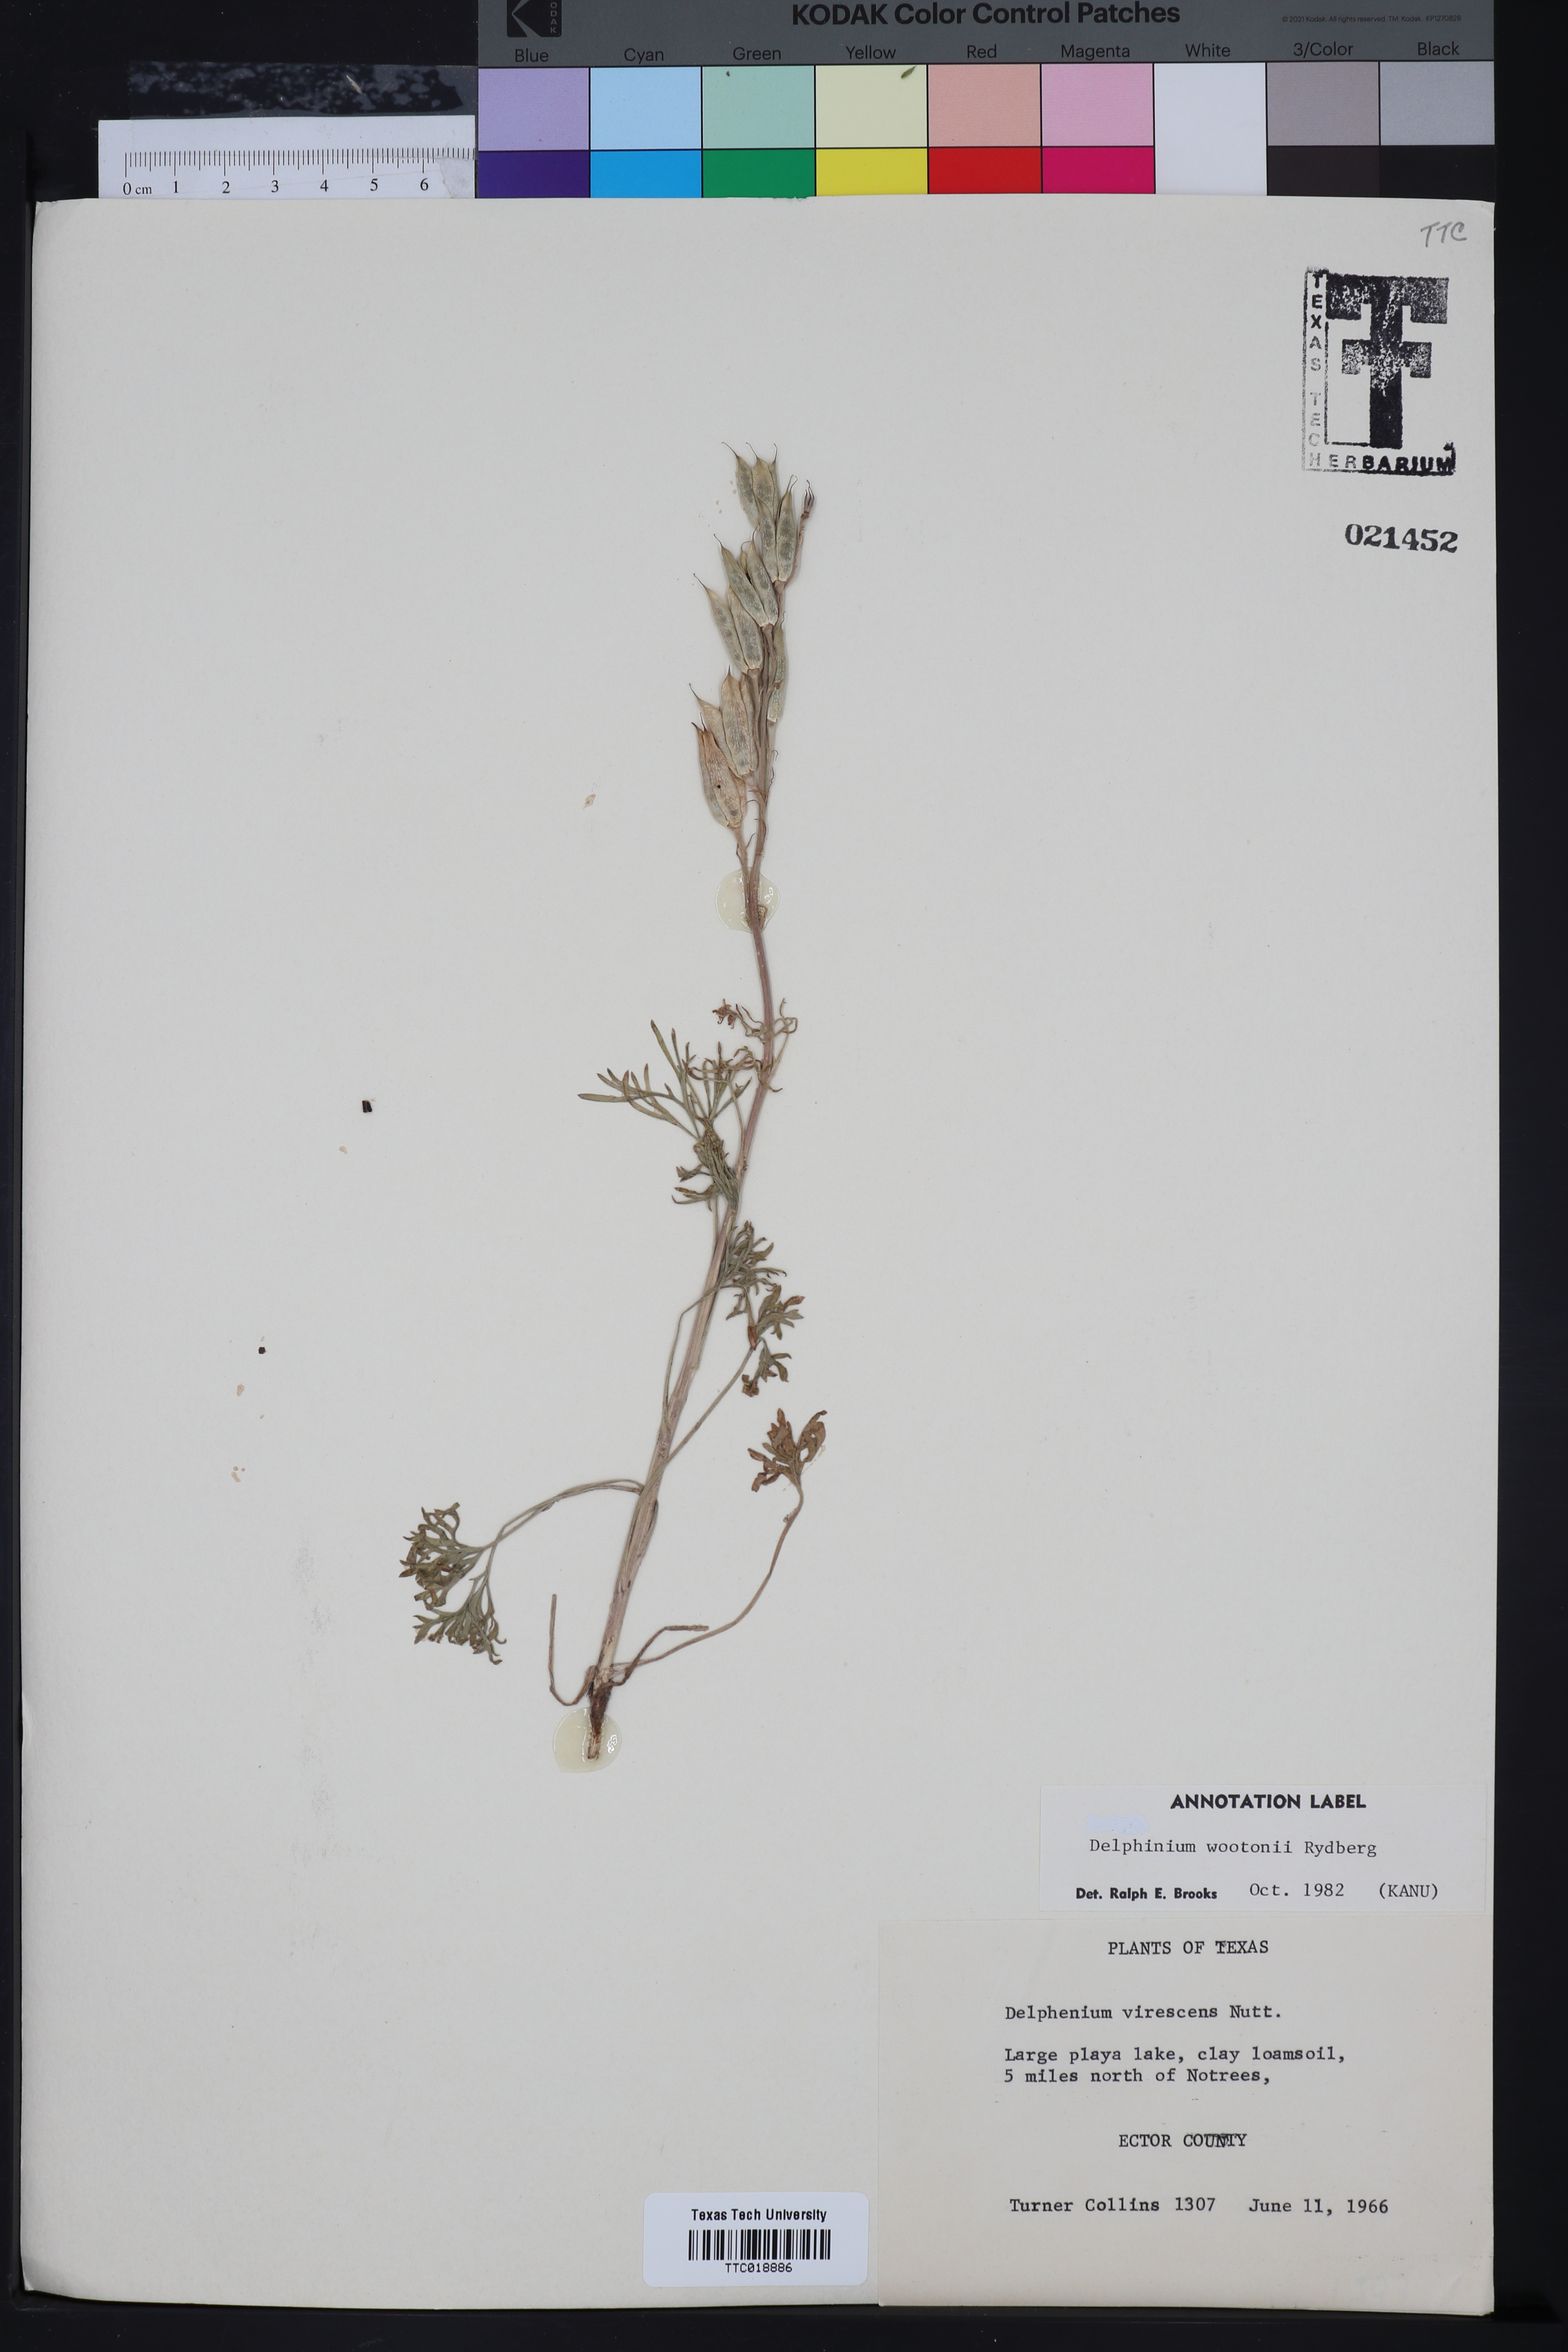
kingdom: Plantae
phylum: Tracheophyta
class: Magnoliopsida
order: Ranunculales
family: Ranunculaceae
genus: Delphinium
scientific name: Delphinium wootonii
